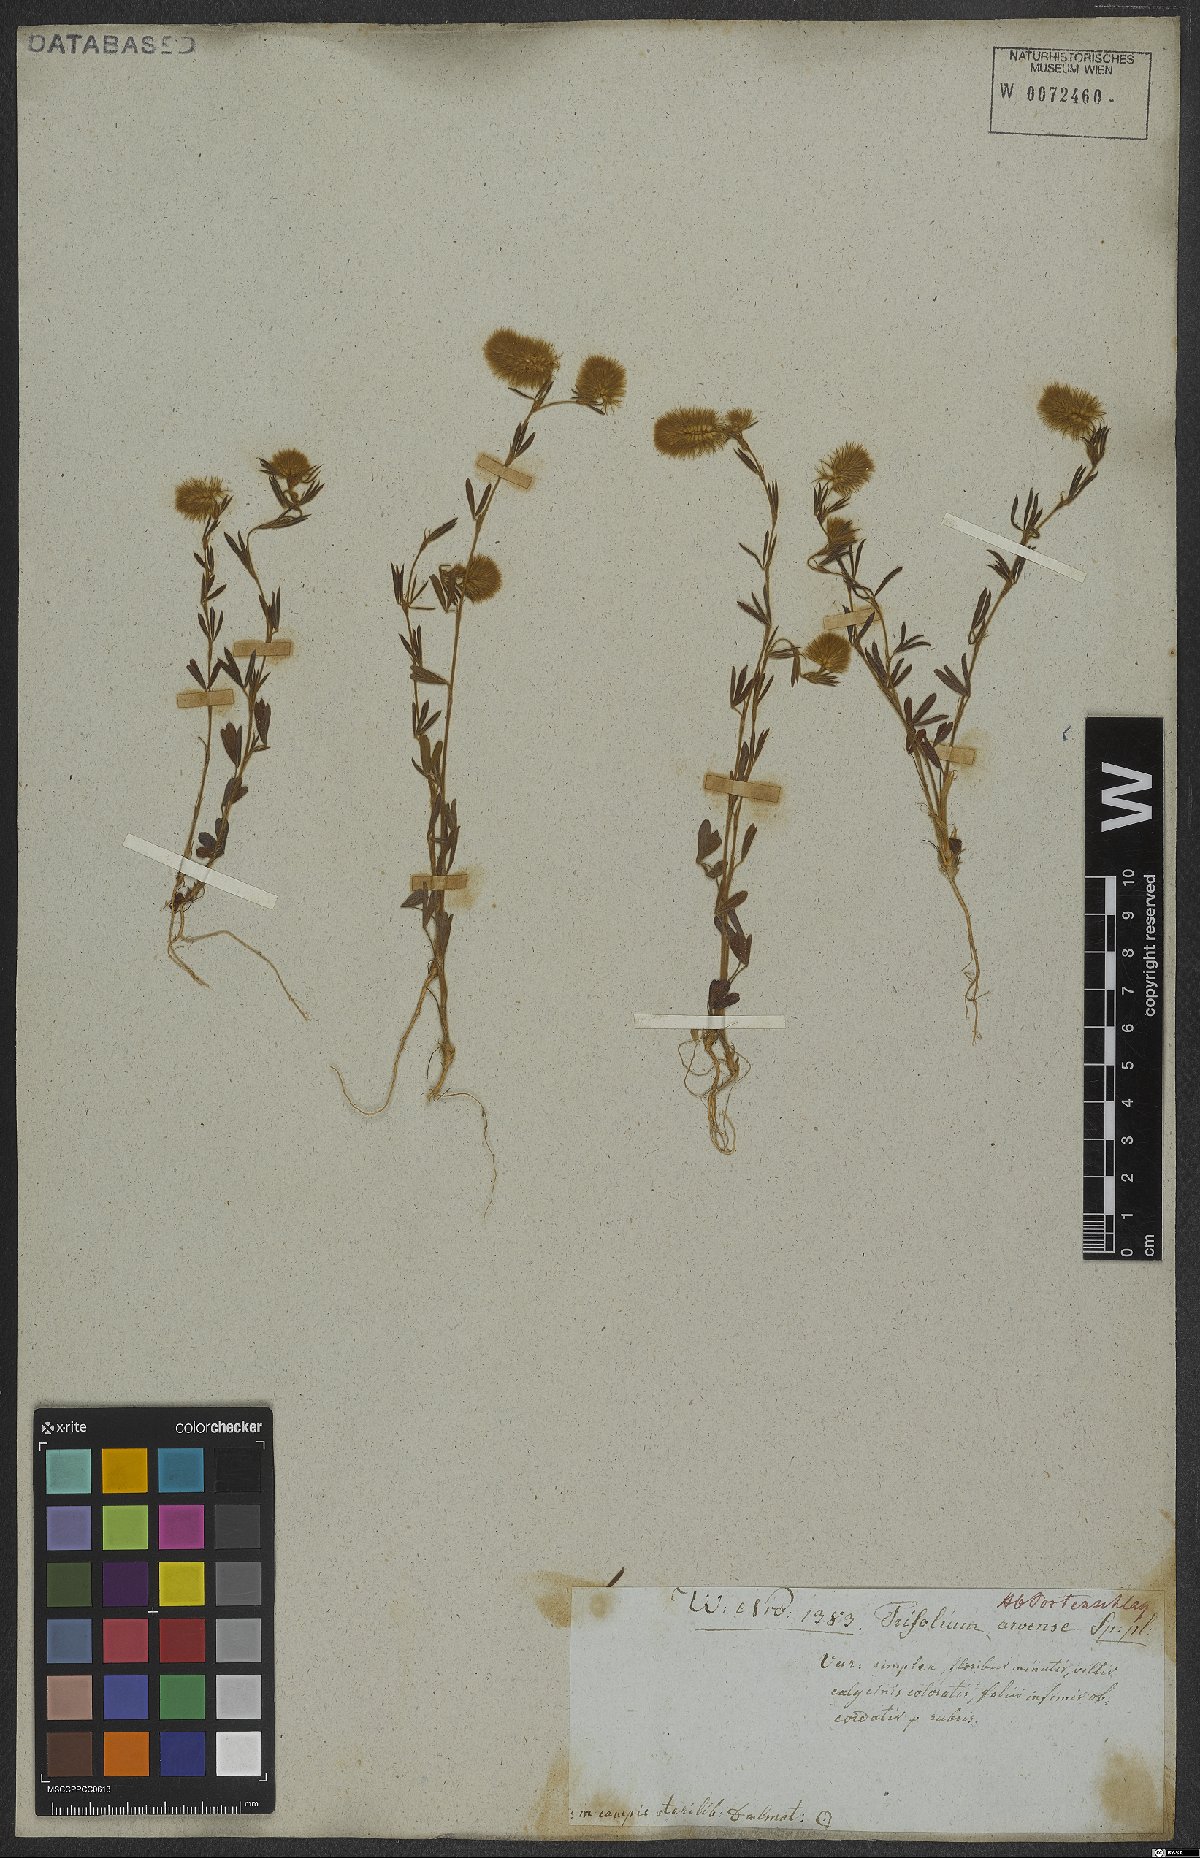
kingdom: Plantae
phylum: Tracheophyta
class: Magnoliopsida
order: Fabales
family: Fabaceae
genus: Trifolium
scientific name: Trifolium arvense
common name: Hare's-foot clover
